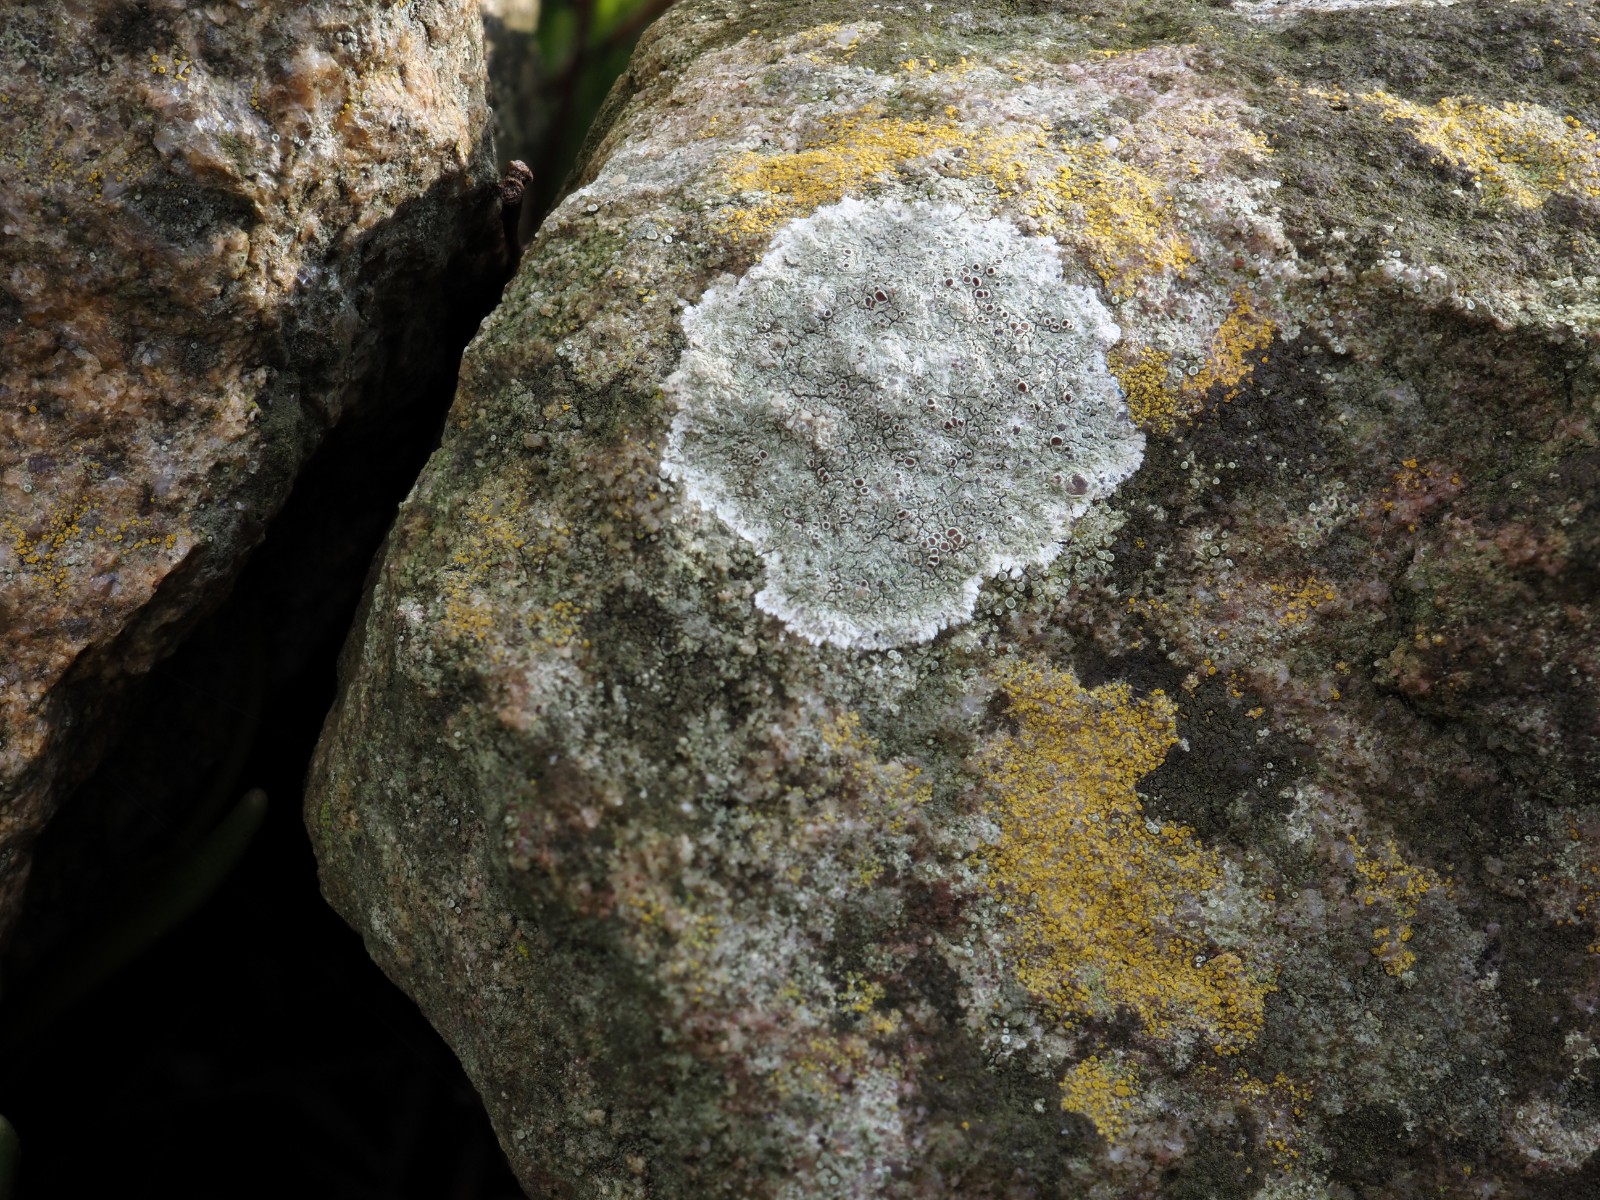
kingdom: Fungi
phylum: Ascomycota
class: Lecanoromycetes
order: Lecanorales
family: Lecanoraceae
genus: Lecanora
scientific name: Lecanora campestris
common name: mur-kantskivelav
